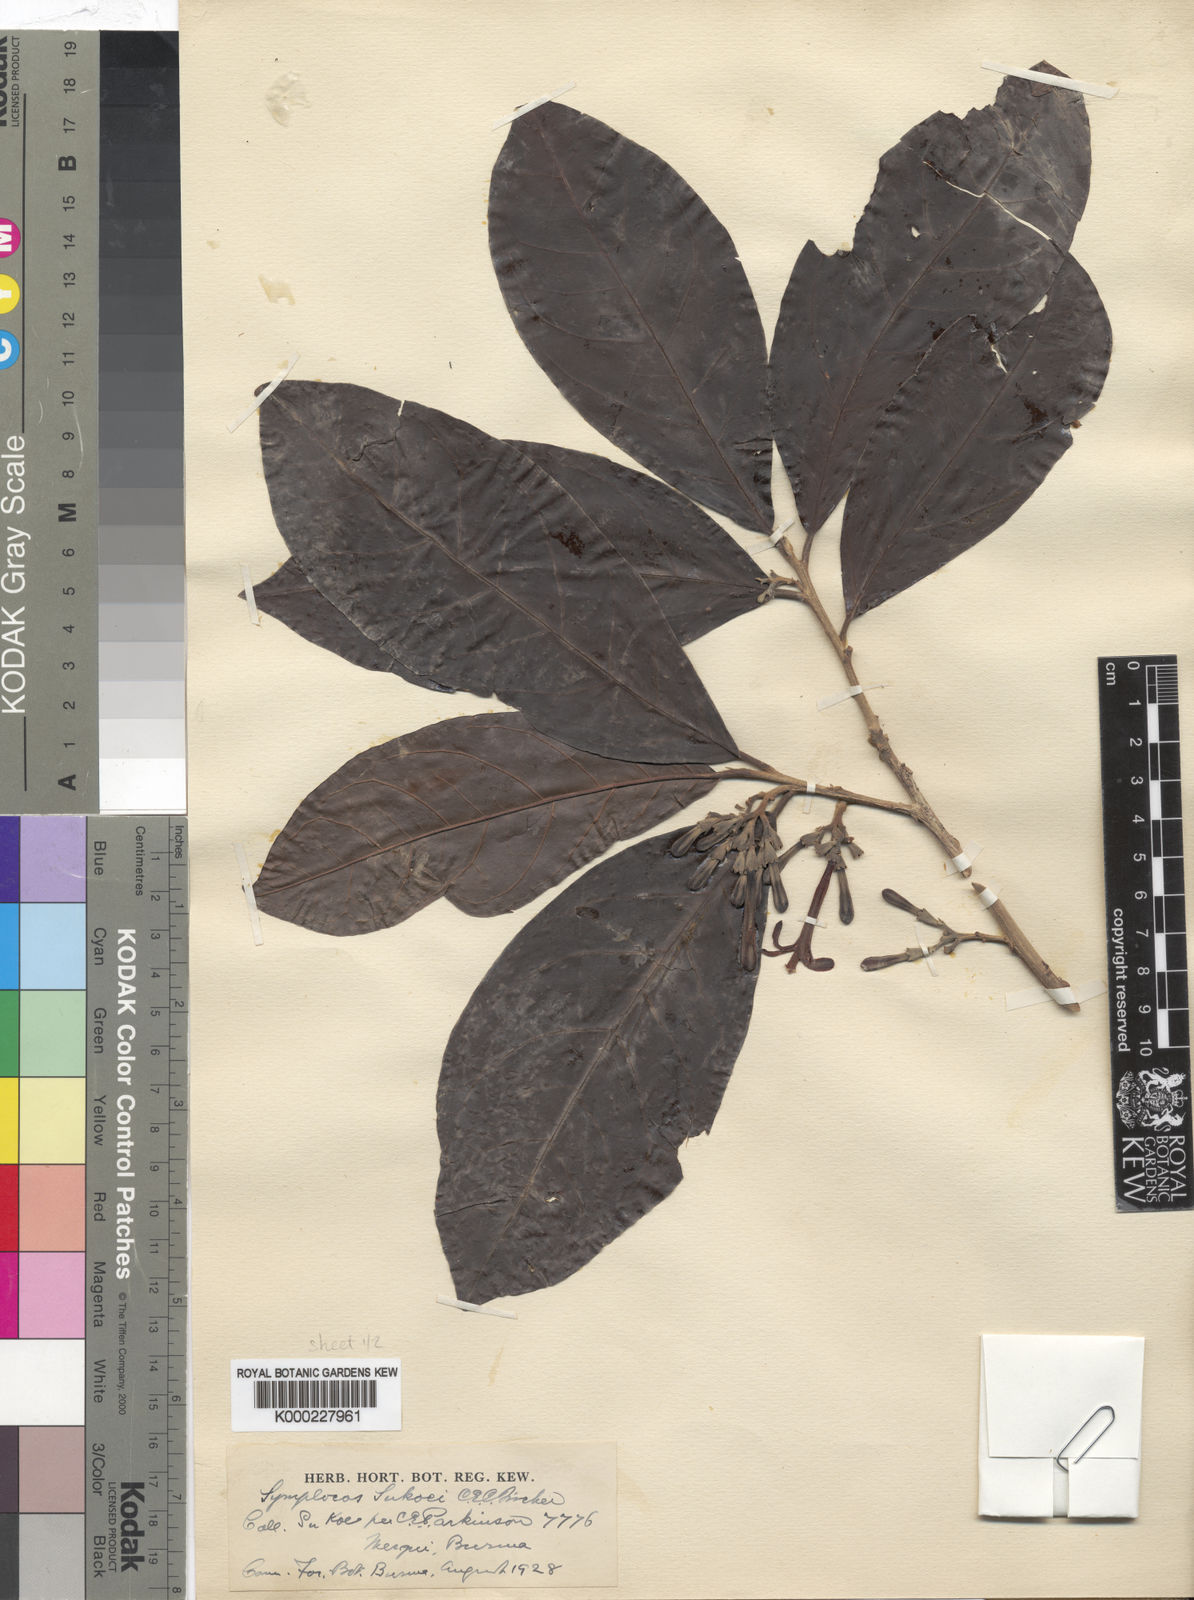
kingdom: Plantae
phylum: Tracheophyta
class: Magnoliopsida
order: Ericales
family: Symplocaceae
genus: Symplocos
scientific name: Symplocos henschelii
